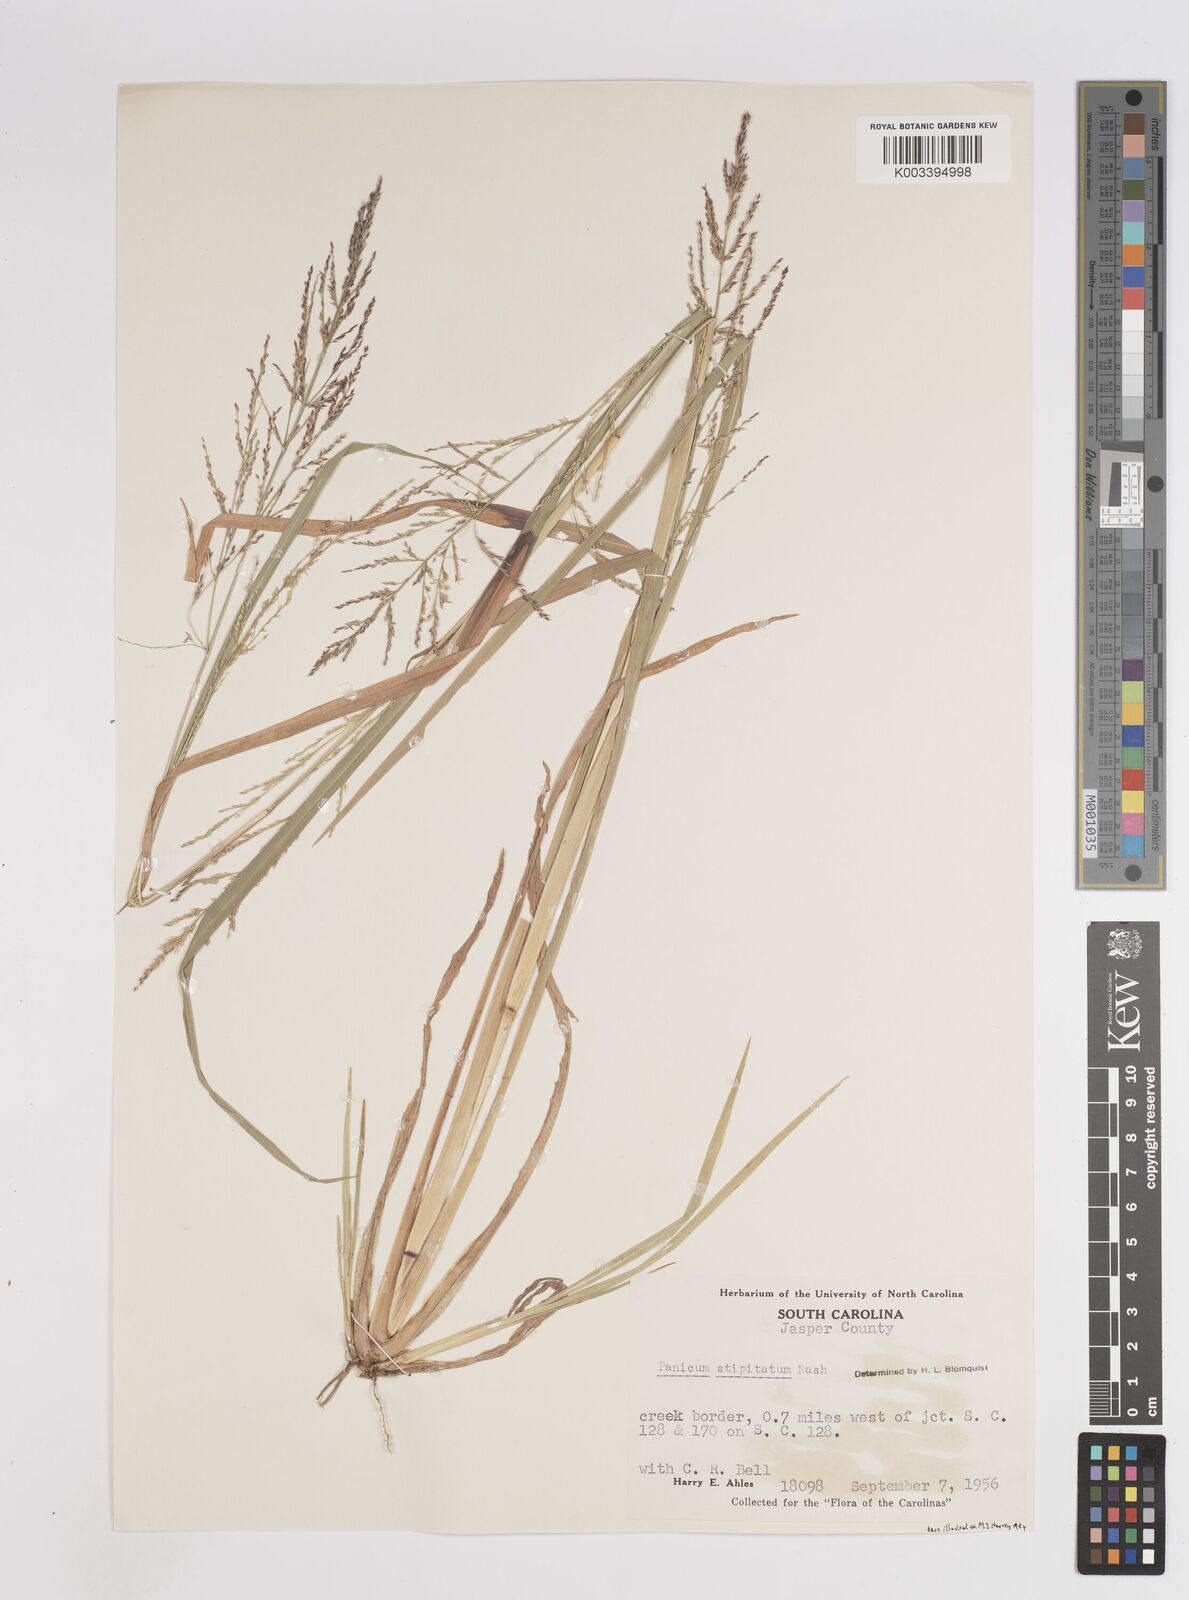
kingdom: Plantae
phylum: Tracheophyta
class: Liliopsida
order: Poales
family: Poaceae
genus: Coleataenia
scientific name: Coleataenia pulchra
